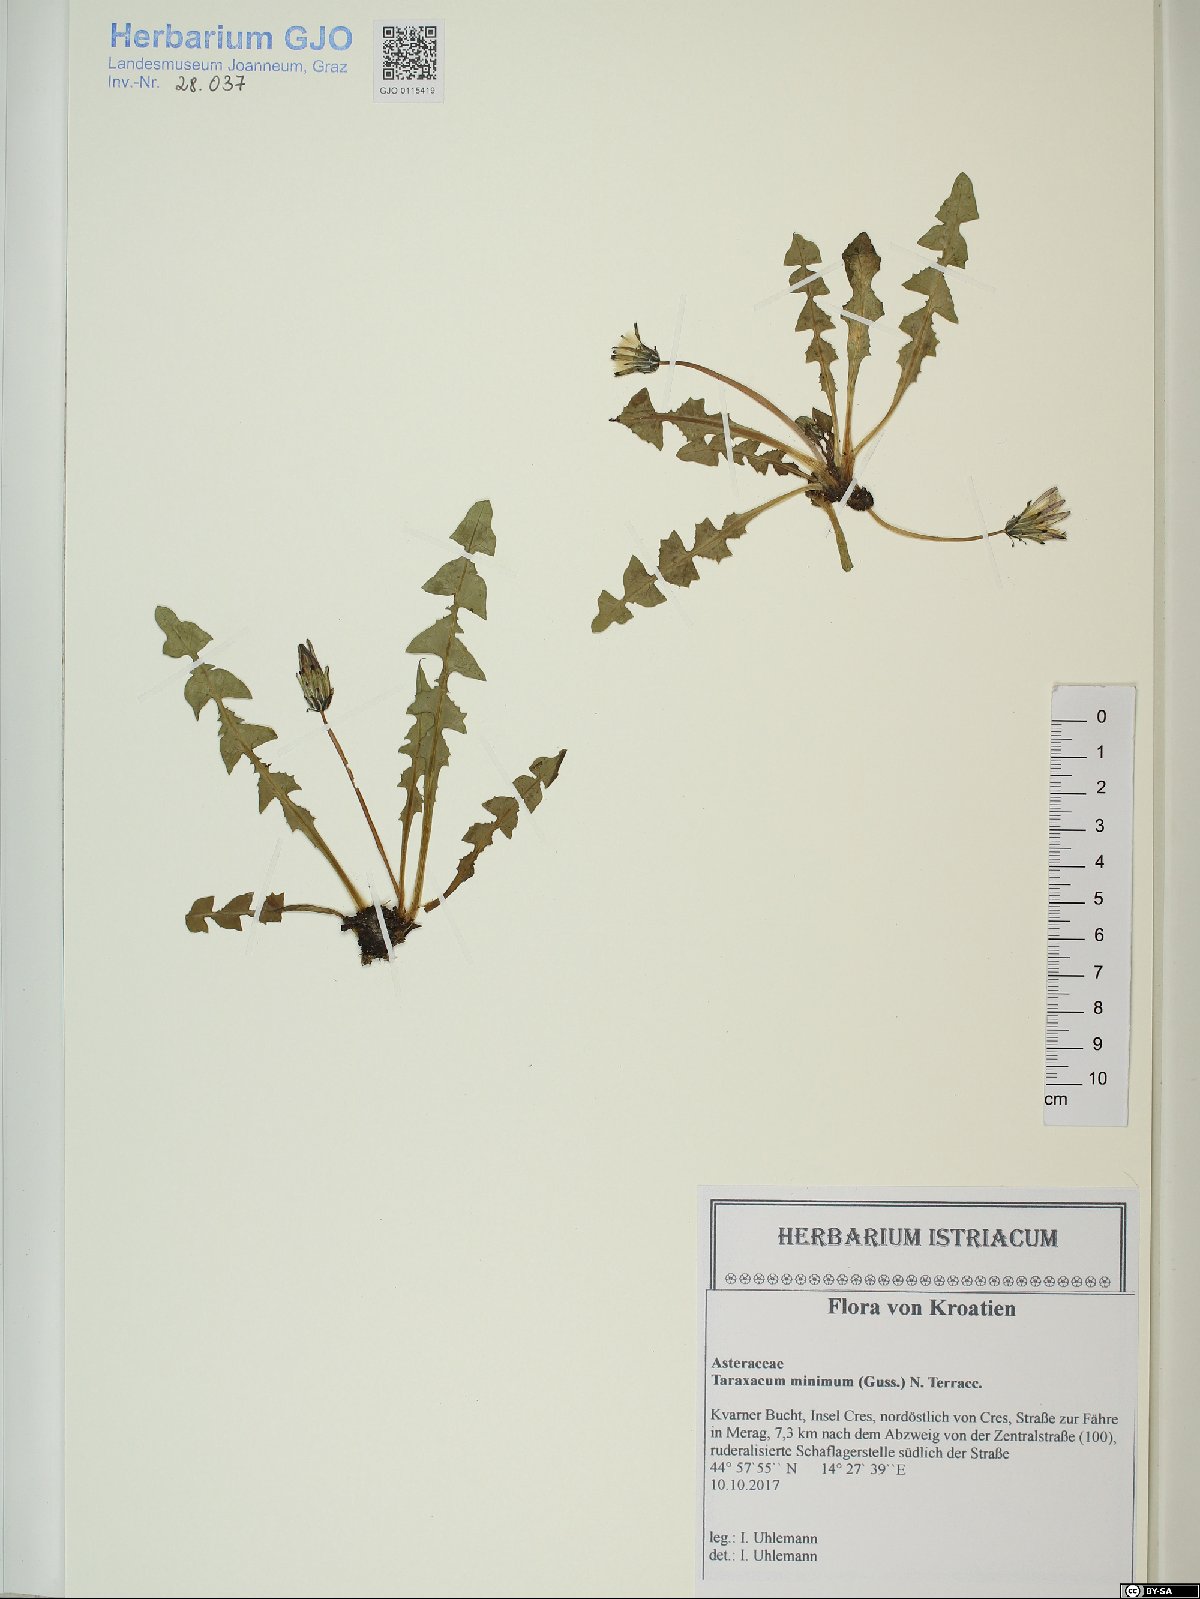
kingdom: Plantae
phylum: Tracheophyta
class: Magnoliopsida
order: Asterales
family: Asteraceae
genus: Taraxacum
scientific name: Taraxacum megalorhizon
